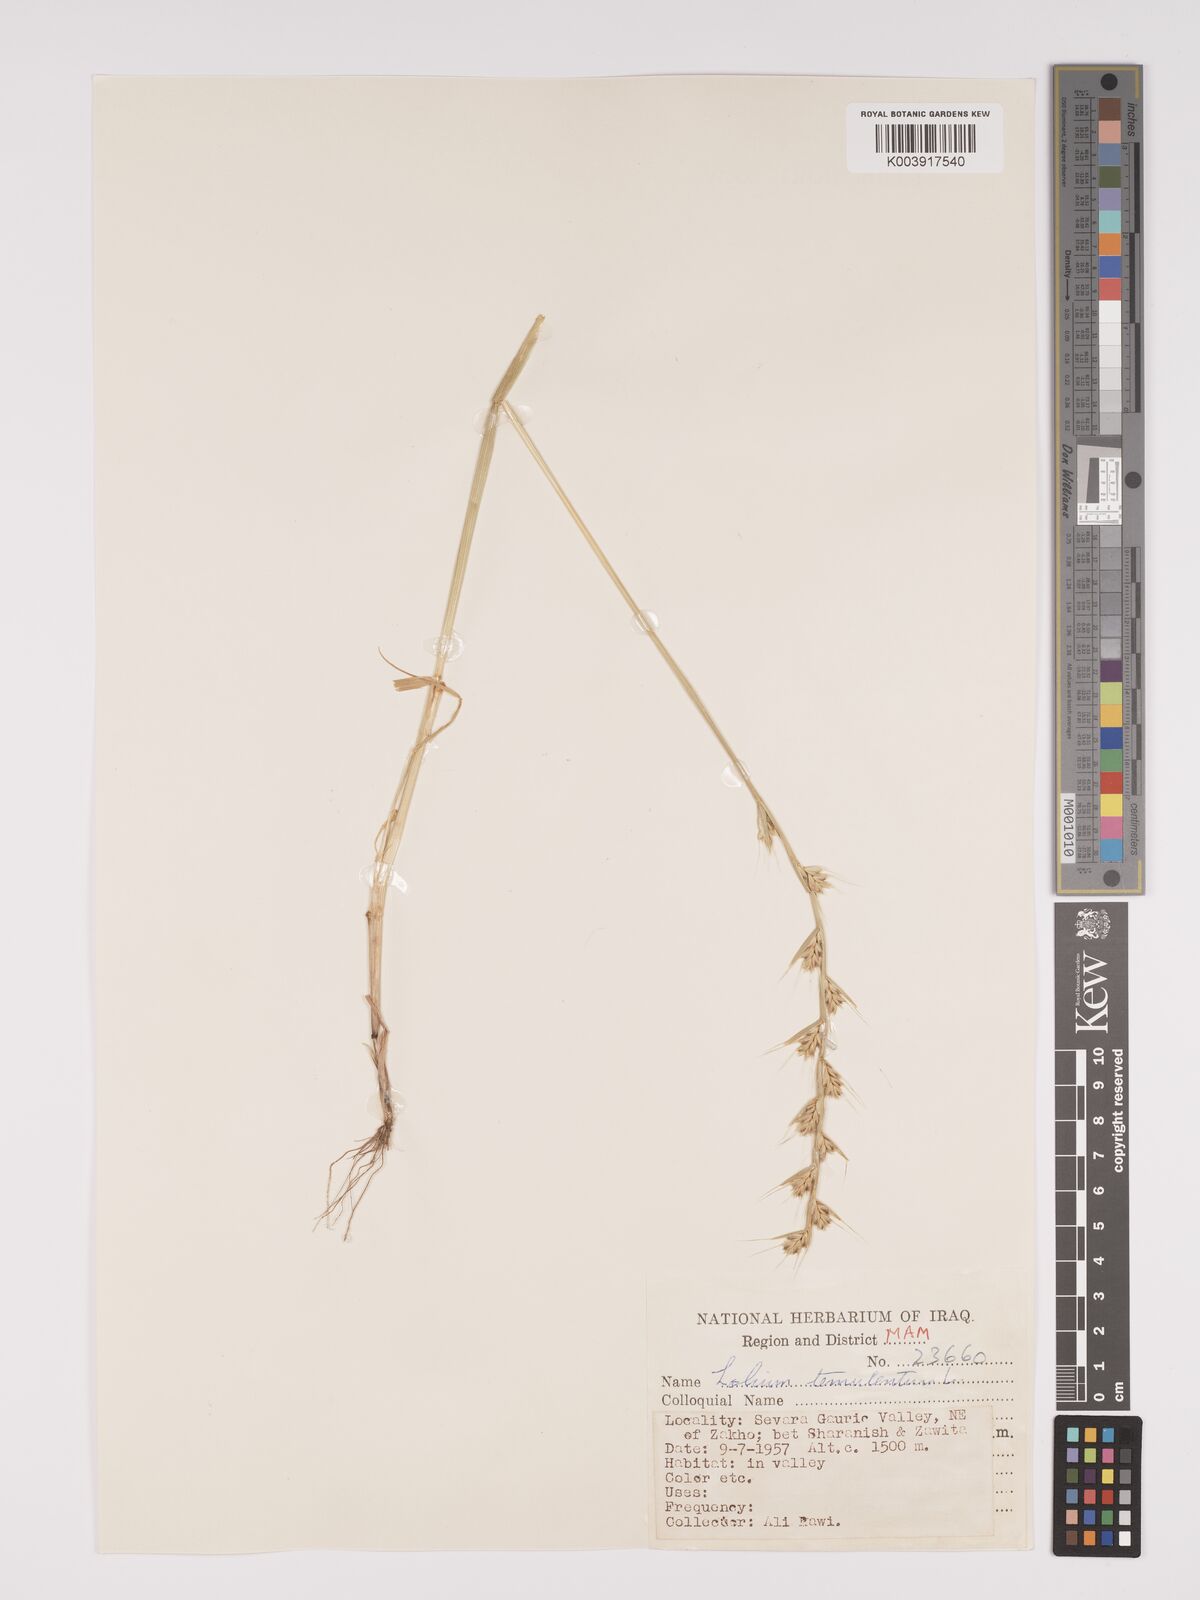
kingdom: Plantae
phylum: Tracheophyta
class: Liliopsida
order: Poales
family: Poaceae
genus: Lolium
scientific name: Lolium temulentum
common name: Darnel
